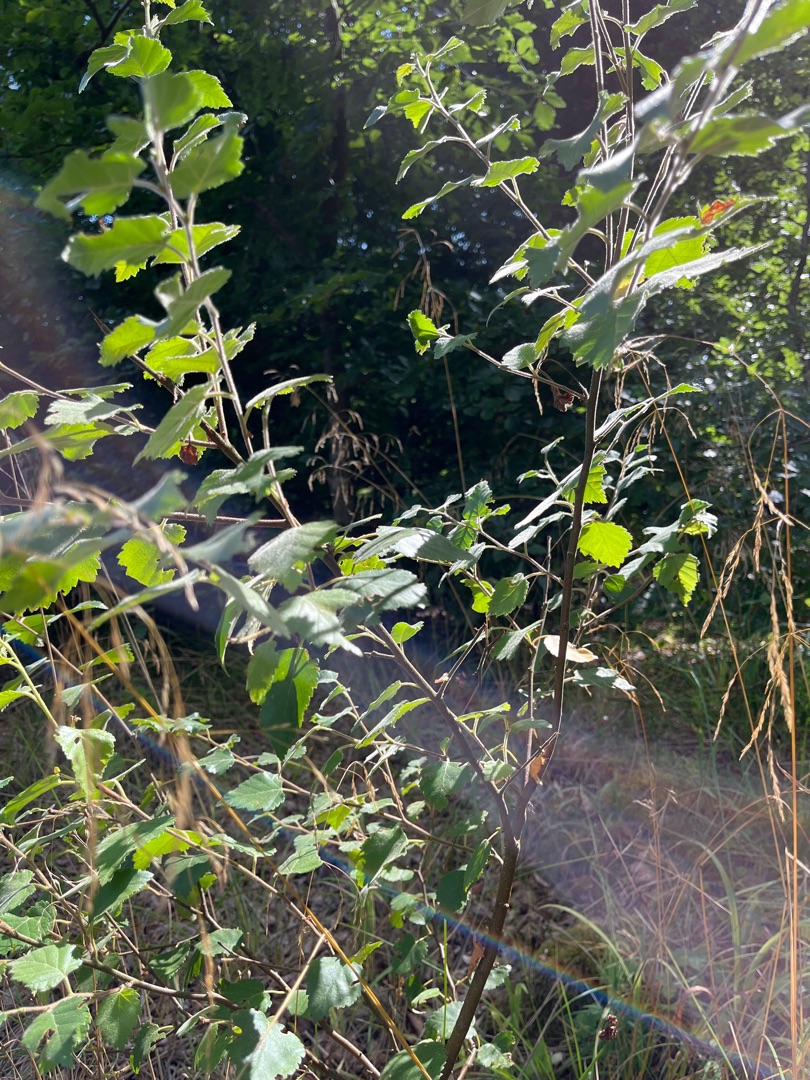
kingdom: Plantae
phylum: Tracheophyta
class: Magnoliopsida
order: Fagales
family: Betulaceae
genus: Betula
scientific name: Betula pubescens
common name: Dun-birk
